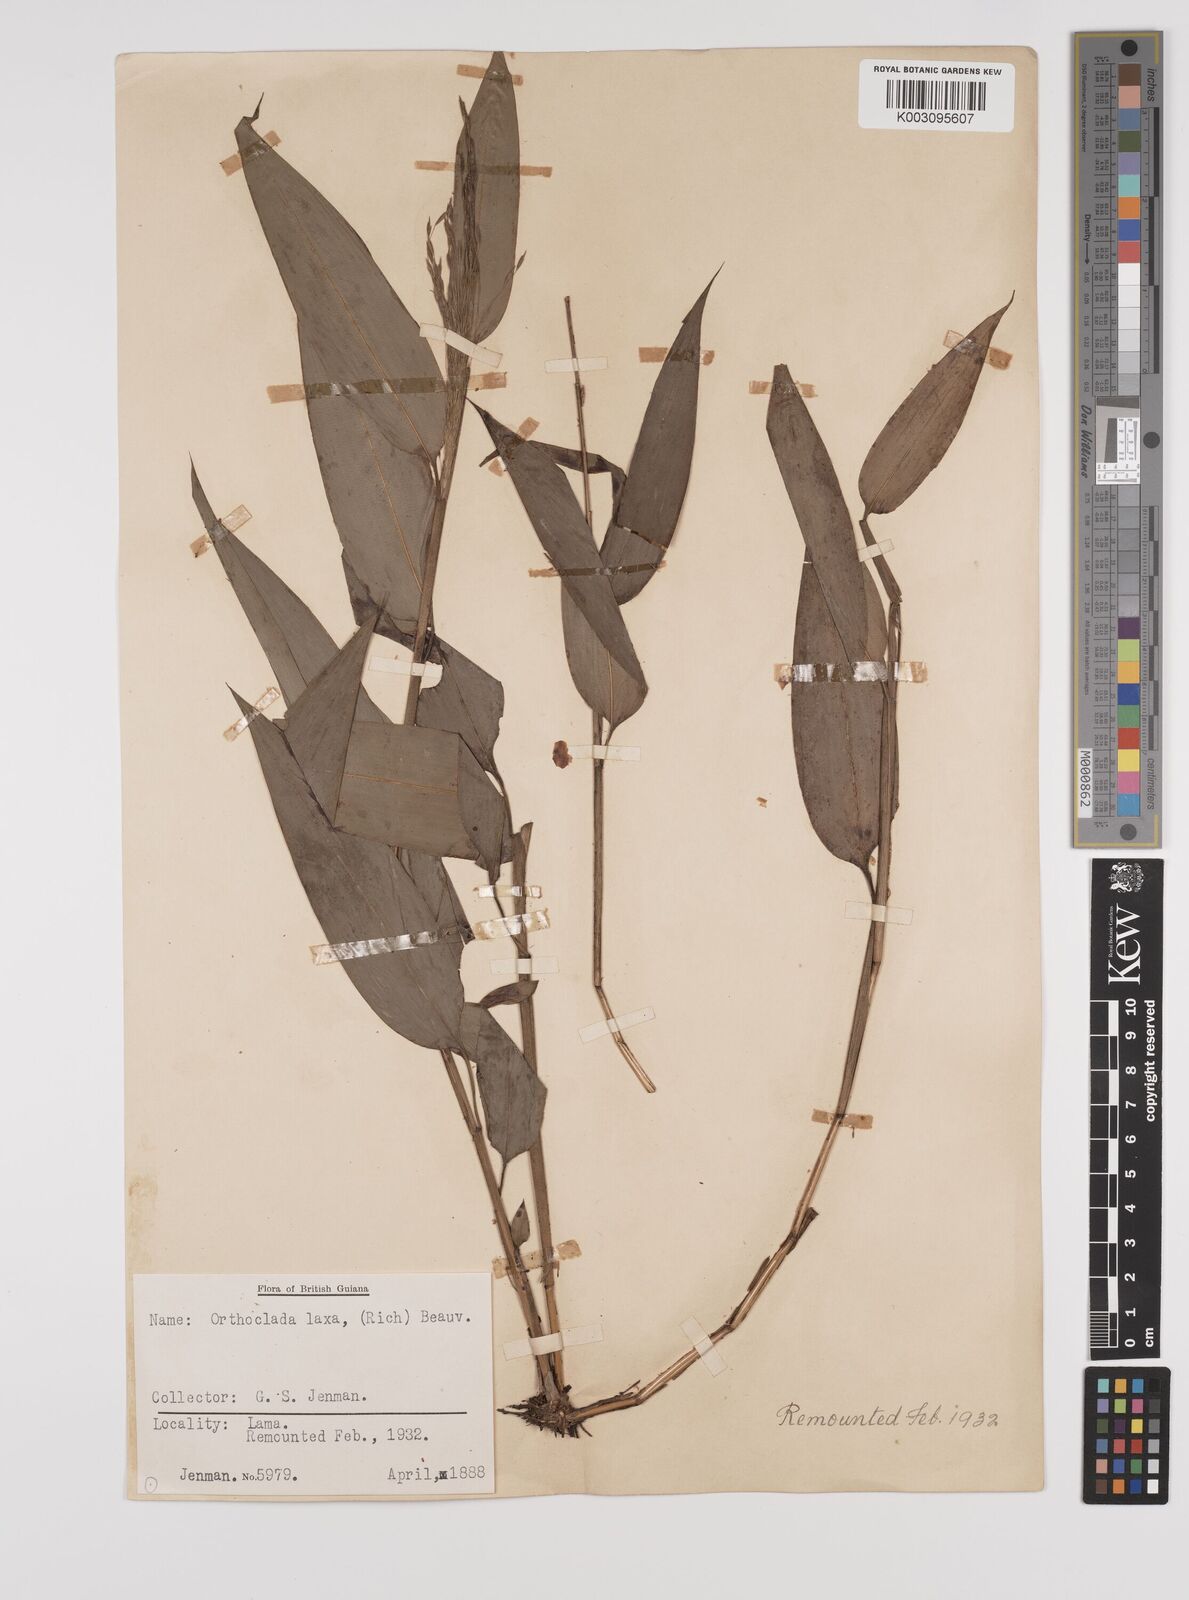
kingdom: Plantae
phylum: Tracheophyta
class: Liliopsida
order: Poales
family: Poaceae
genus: Orthoclada
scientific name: Orthoclada laxa
